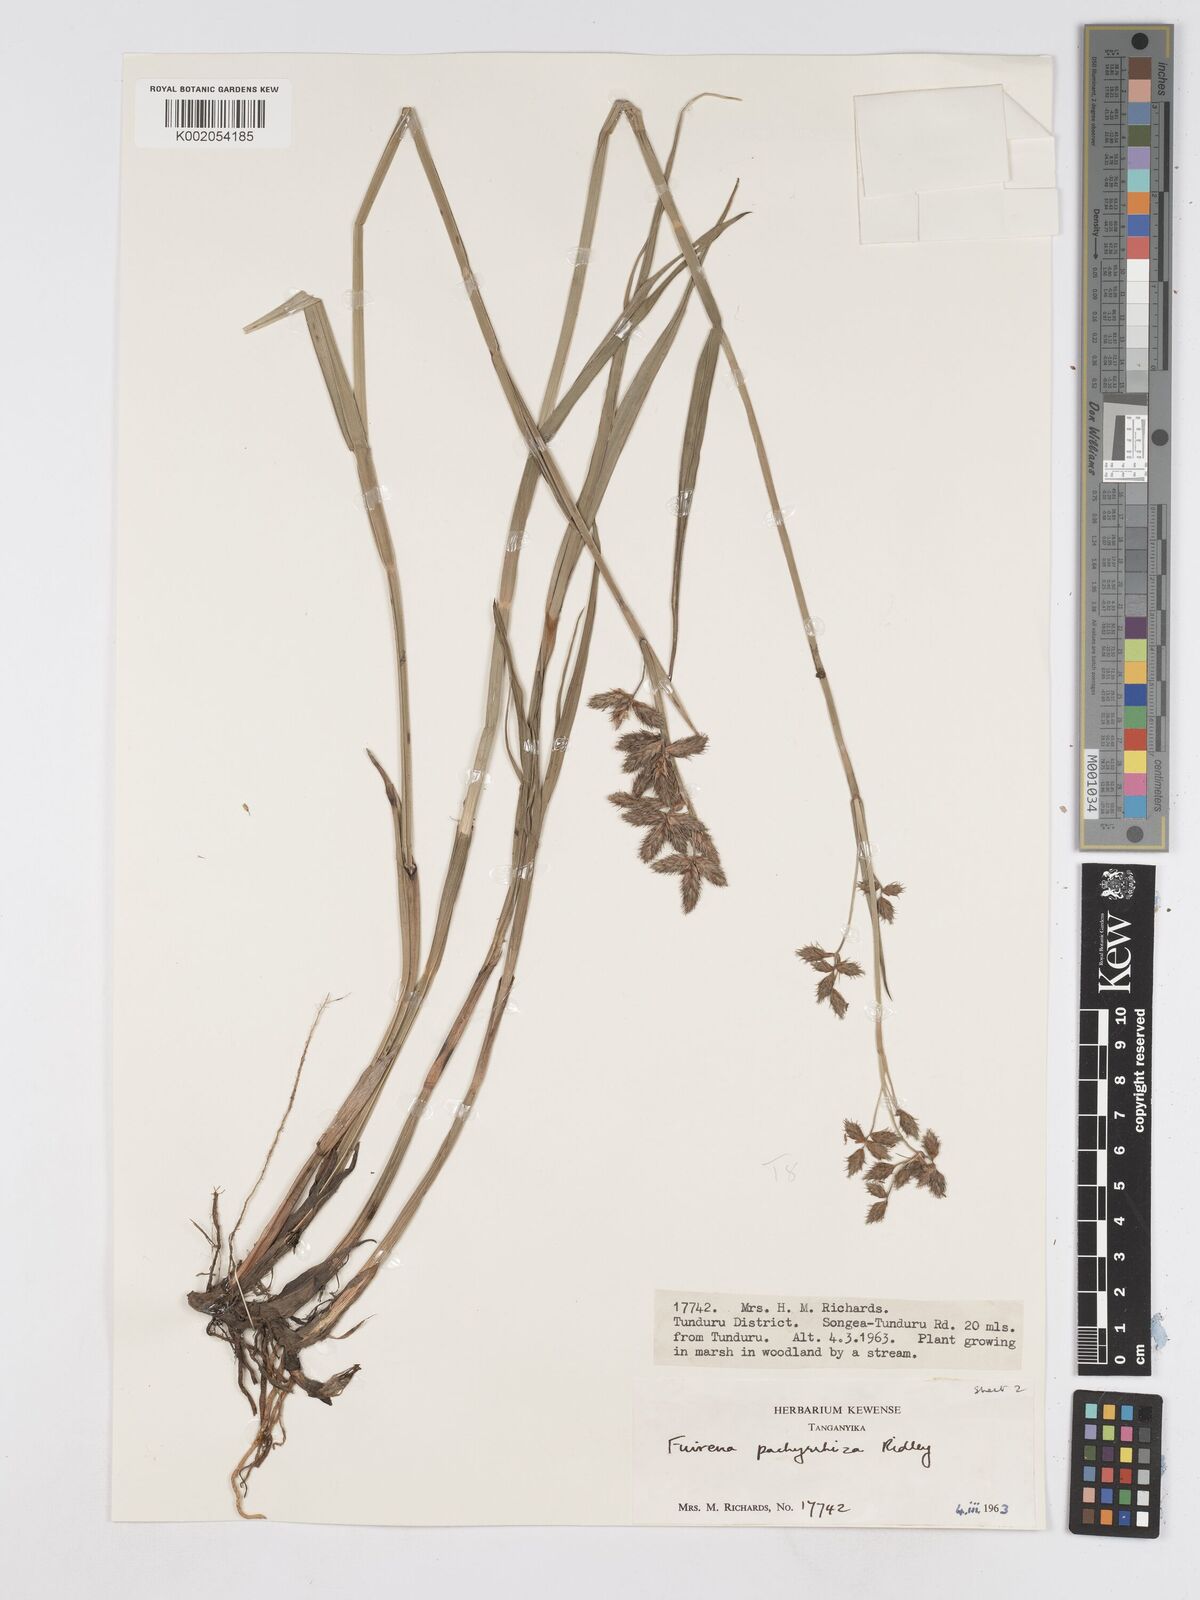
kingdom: Plantae
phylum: Tracheophyta
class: Liliopsida
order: Poales
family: Cyperaceae
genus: Fuirena
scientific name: Fuirena pachyrrhiza
